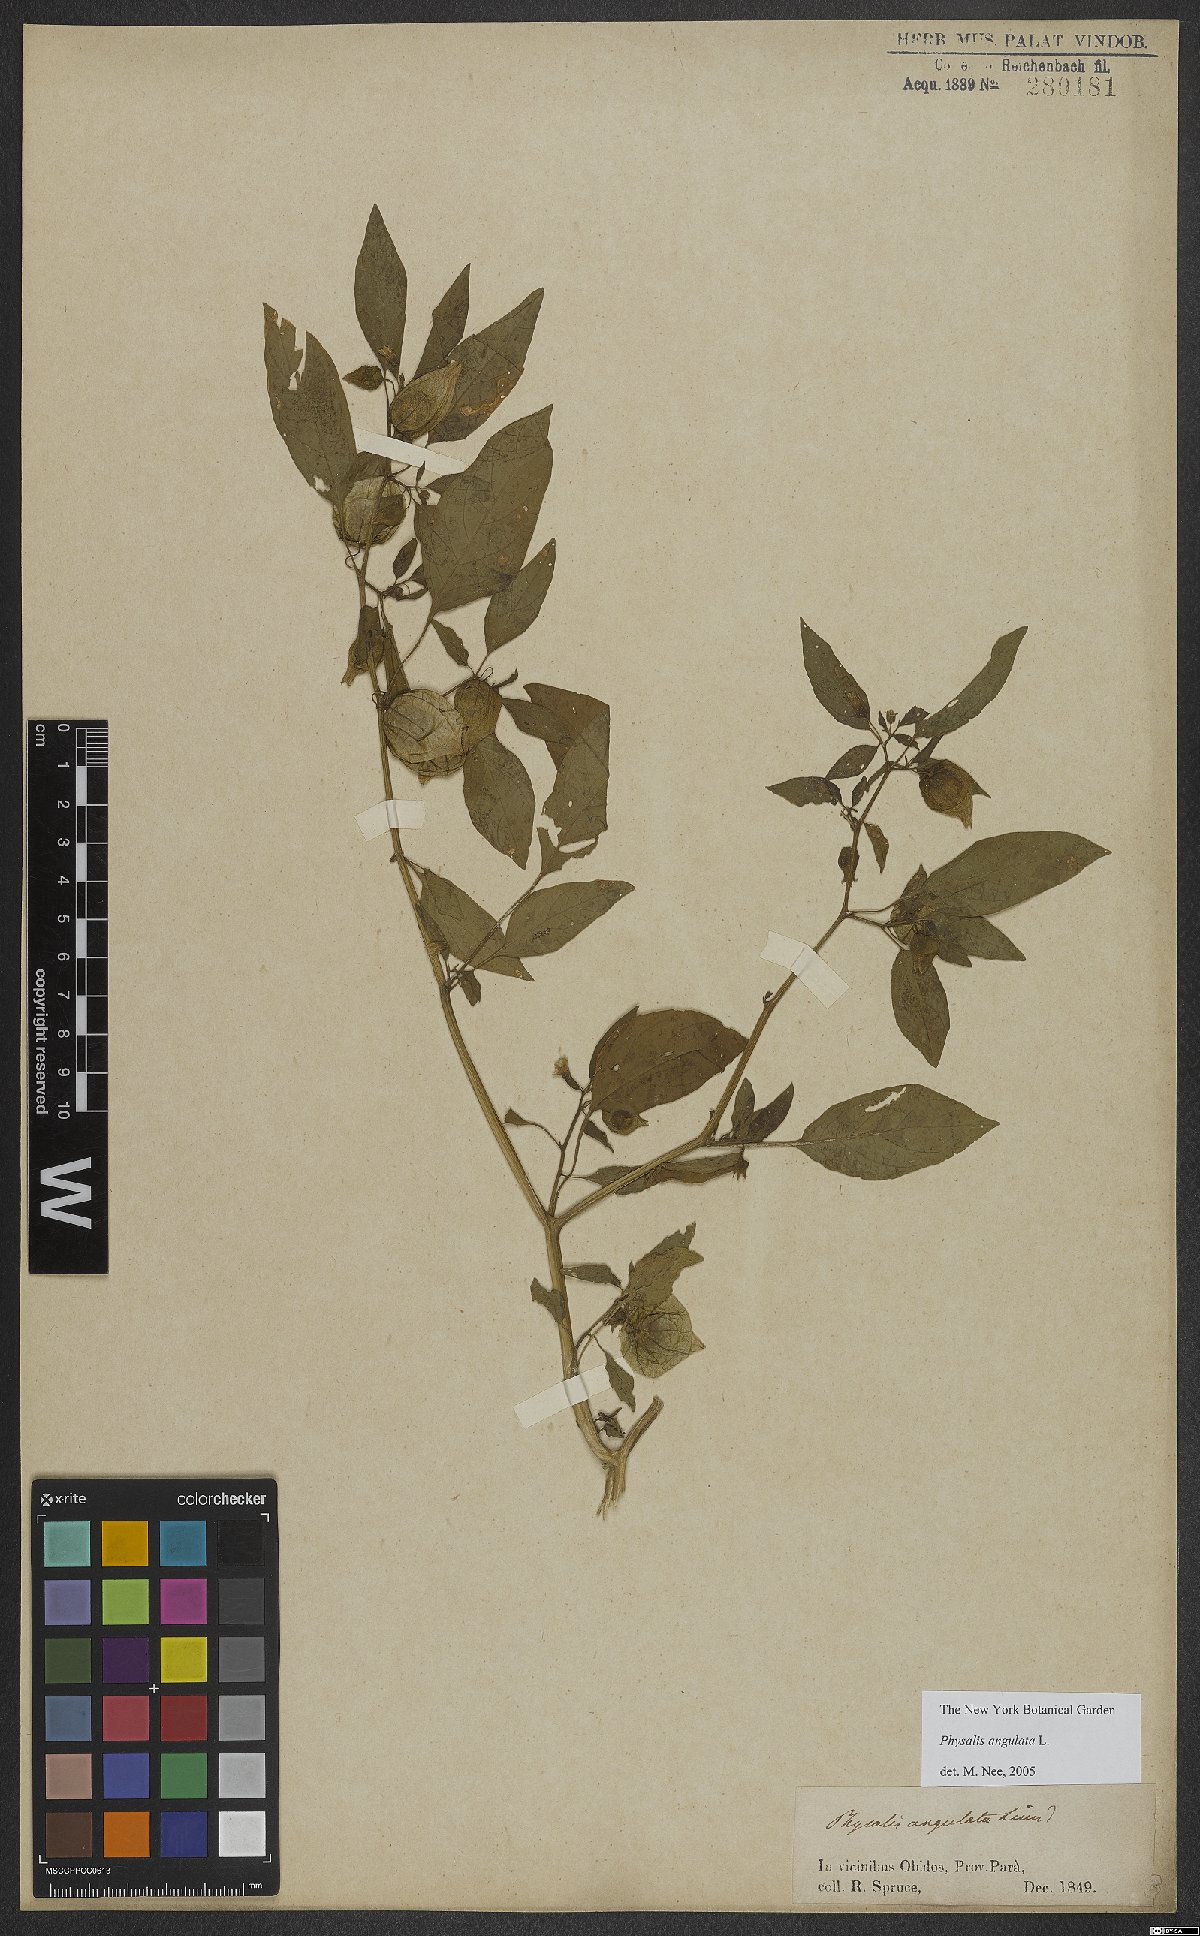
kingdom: Plantae
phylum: Tracheophyta
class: Magnoliopsida
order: Solanales
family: Solanaceae
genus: Physalis
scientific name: Physalis angulata
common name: Angular winter-cherry
